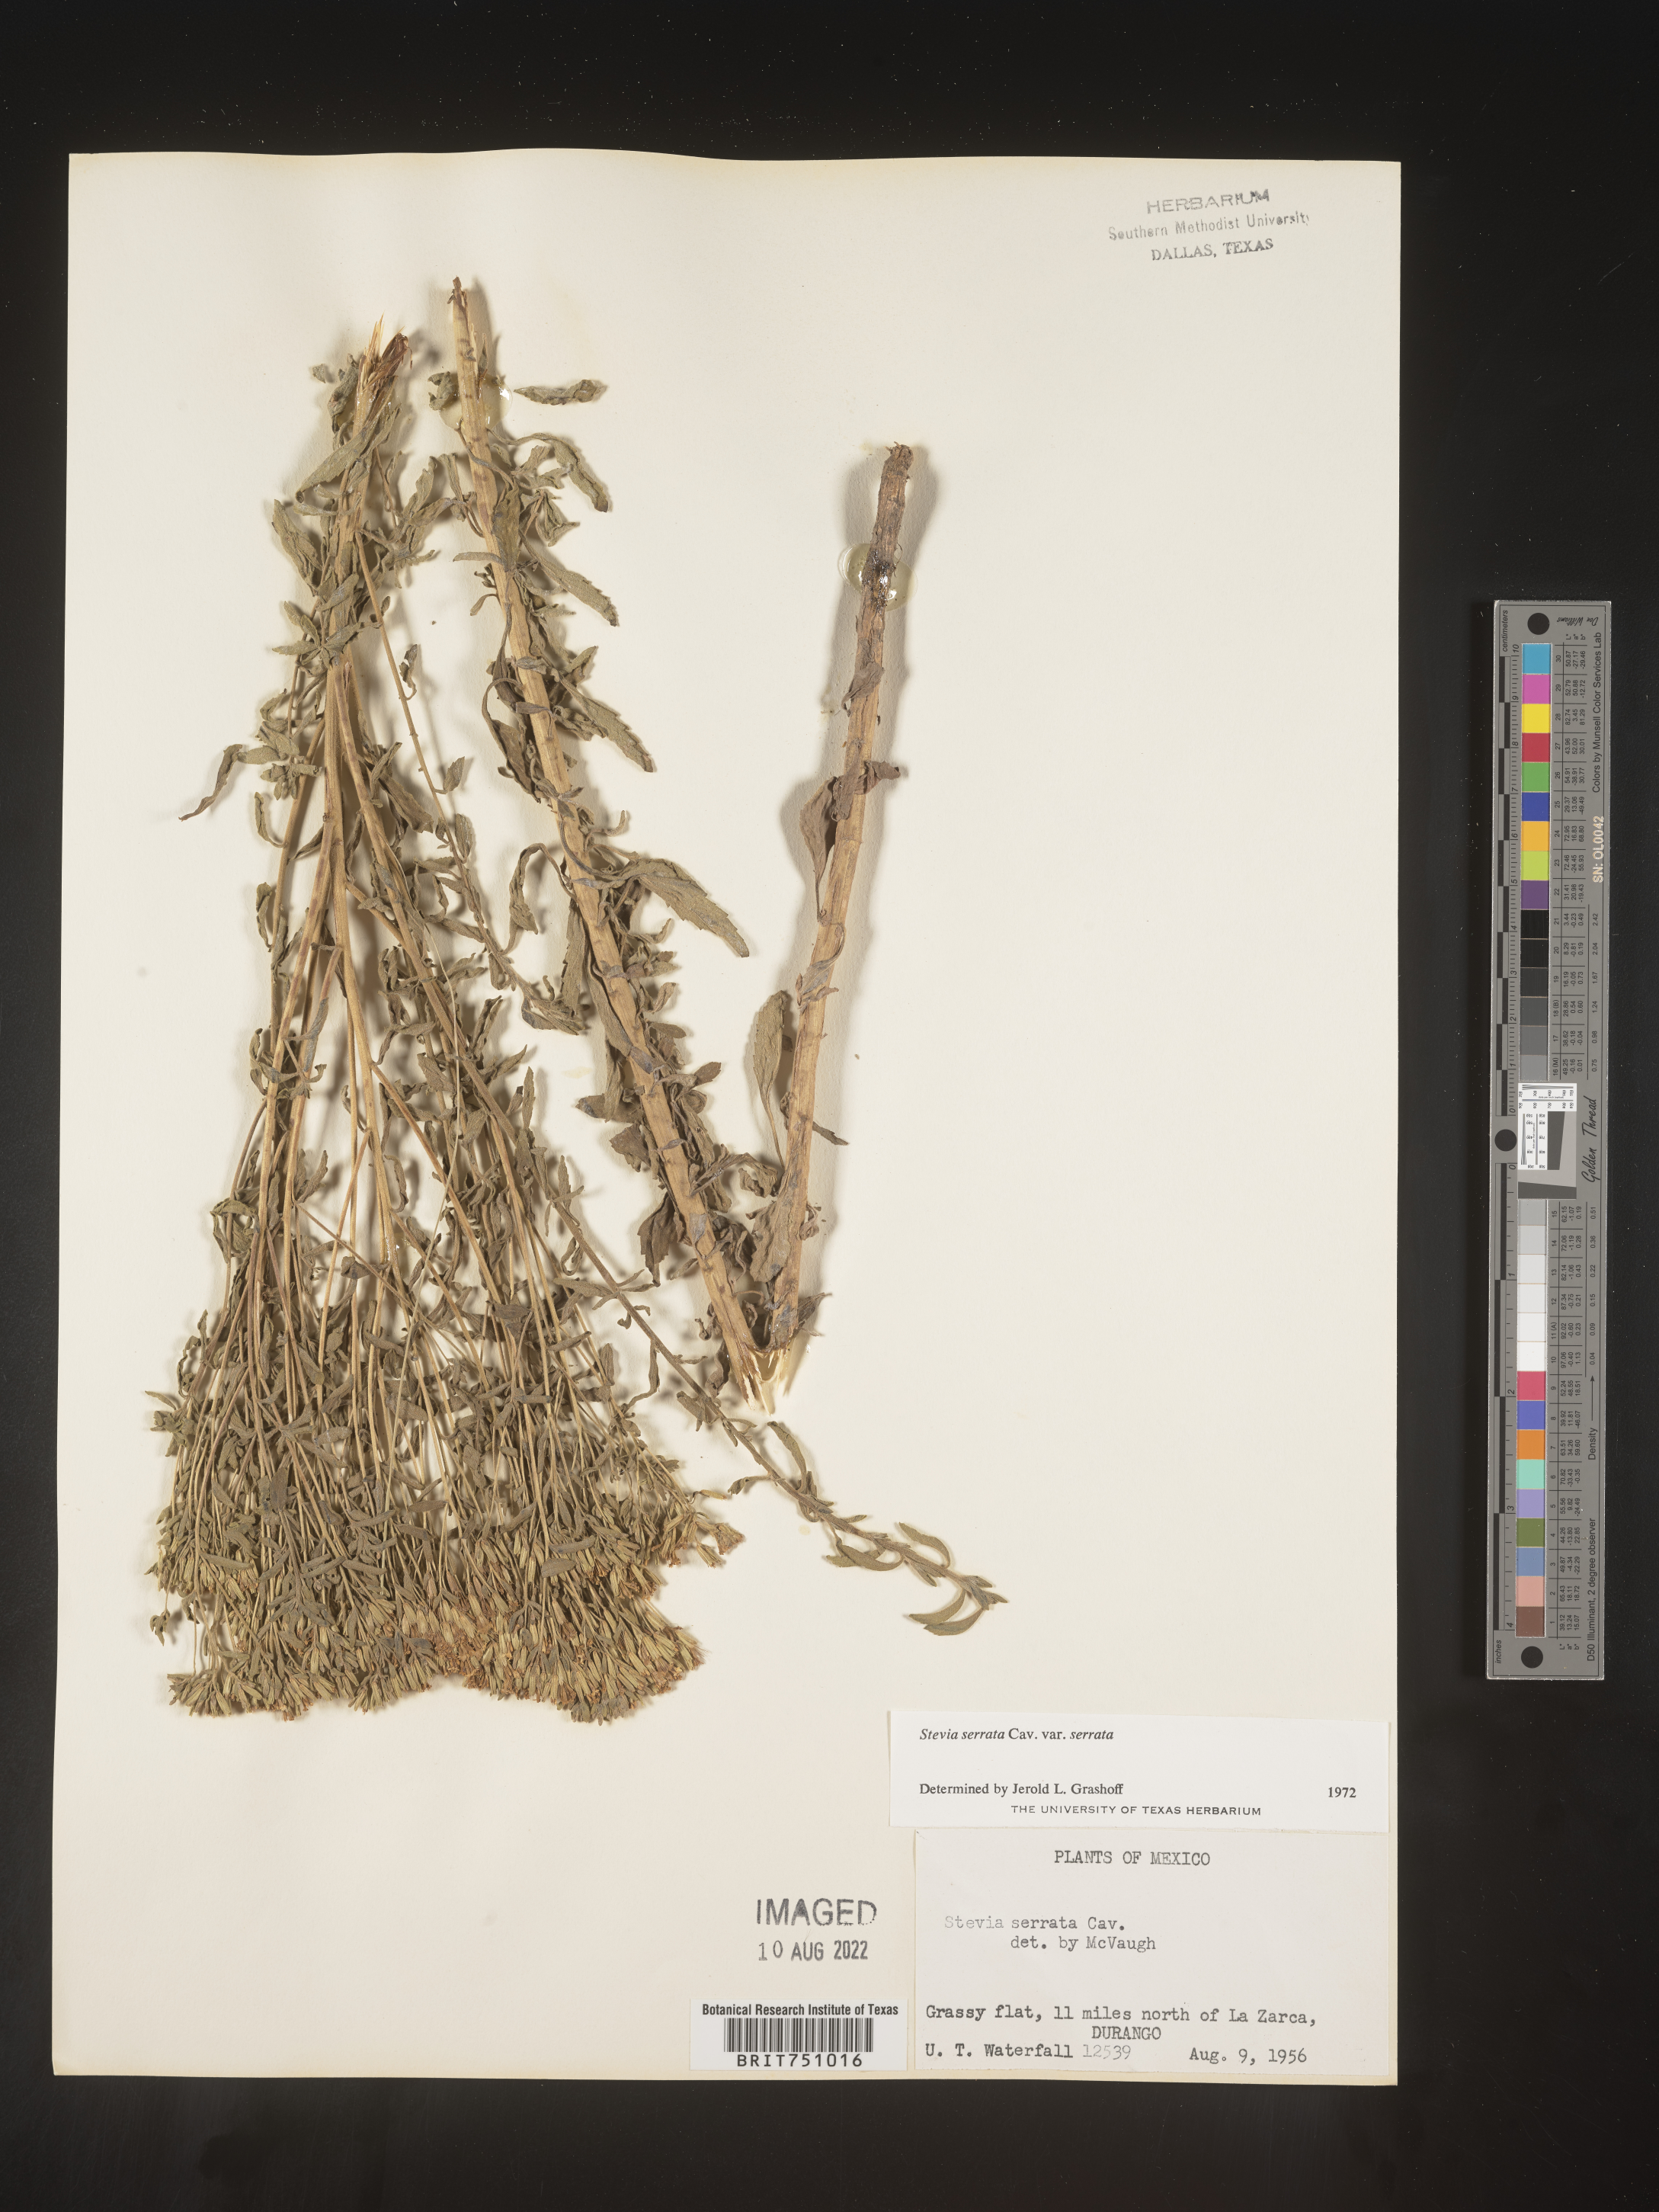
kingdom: Plantae
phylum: Tracheophyta
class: Magnoliopsida
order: Asterales
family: Asteraceae
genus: Stevia
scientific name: Stevia serrata
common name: Sawtooth candyleaf
